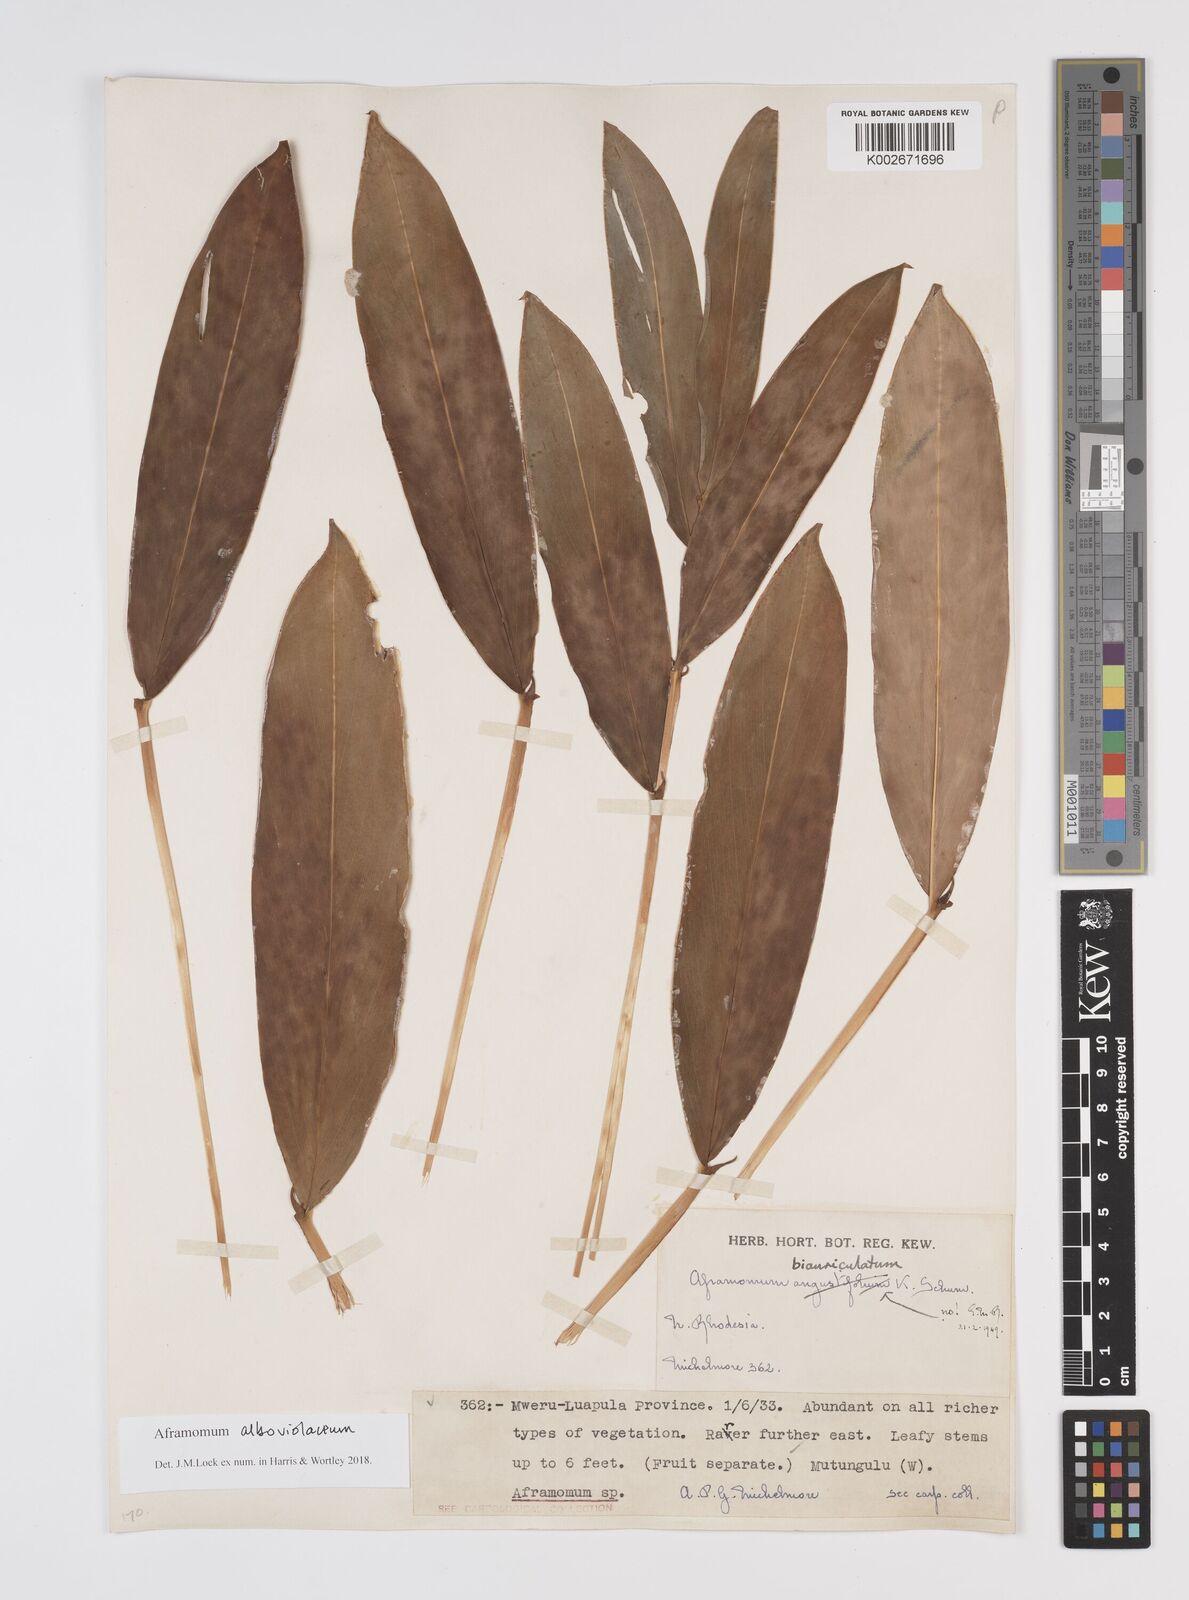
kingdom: Plantae
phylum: Tracheophyta
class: Liliopsida
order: Zingiberales
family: Zingiberaceae
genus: Aframomum
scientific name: Aframomum alboviolaceum
